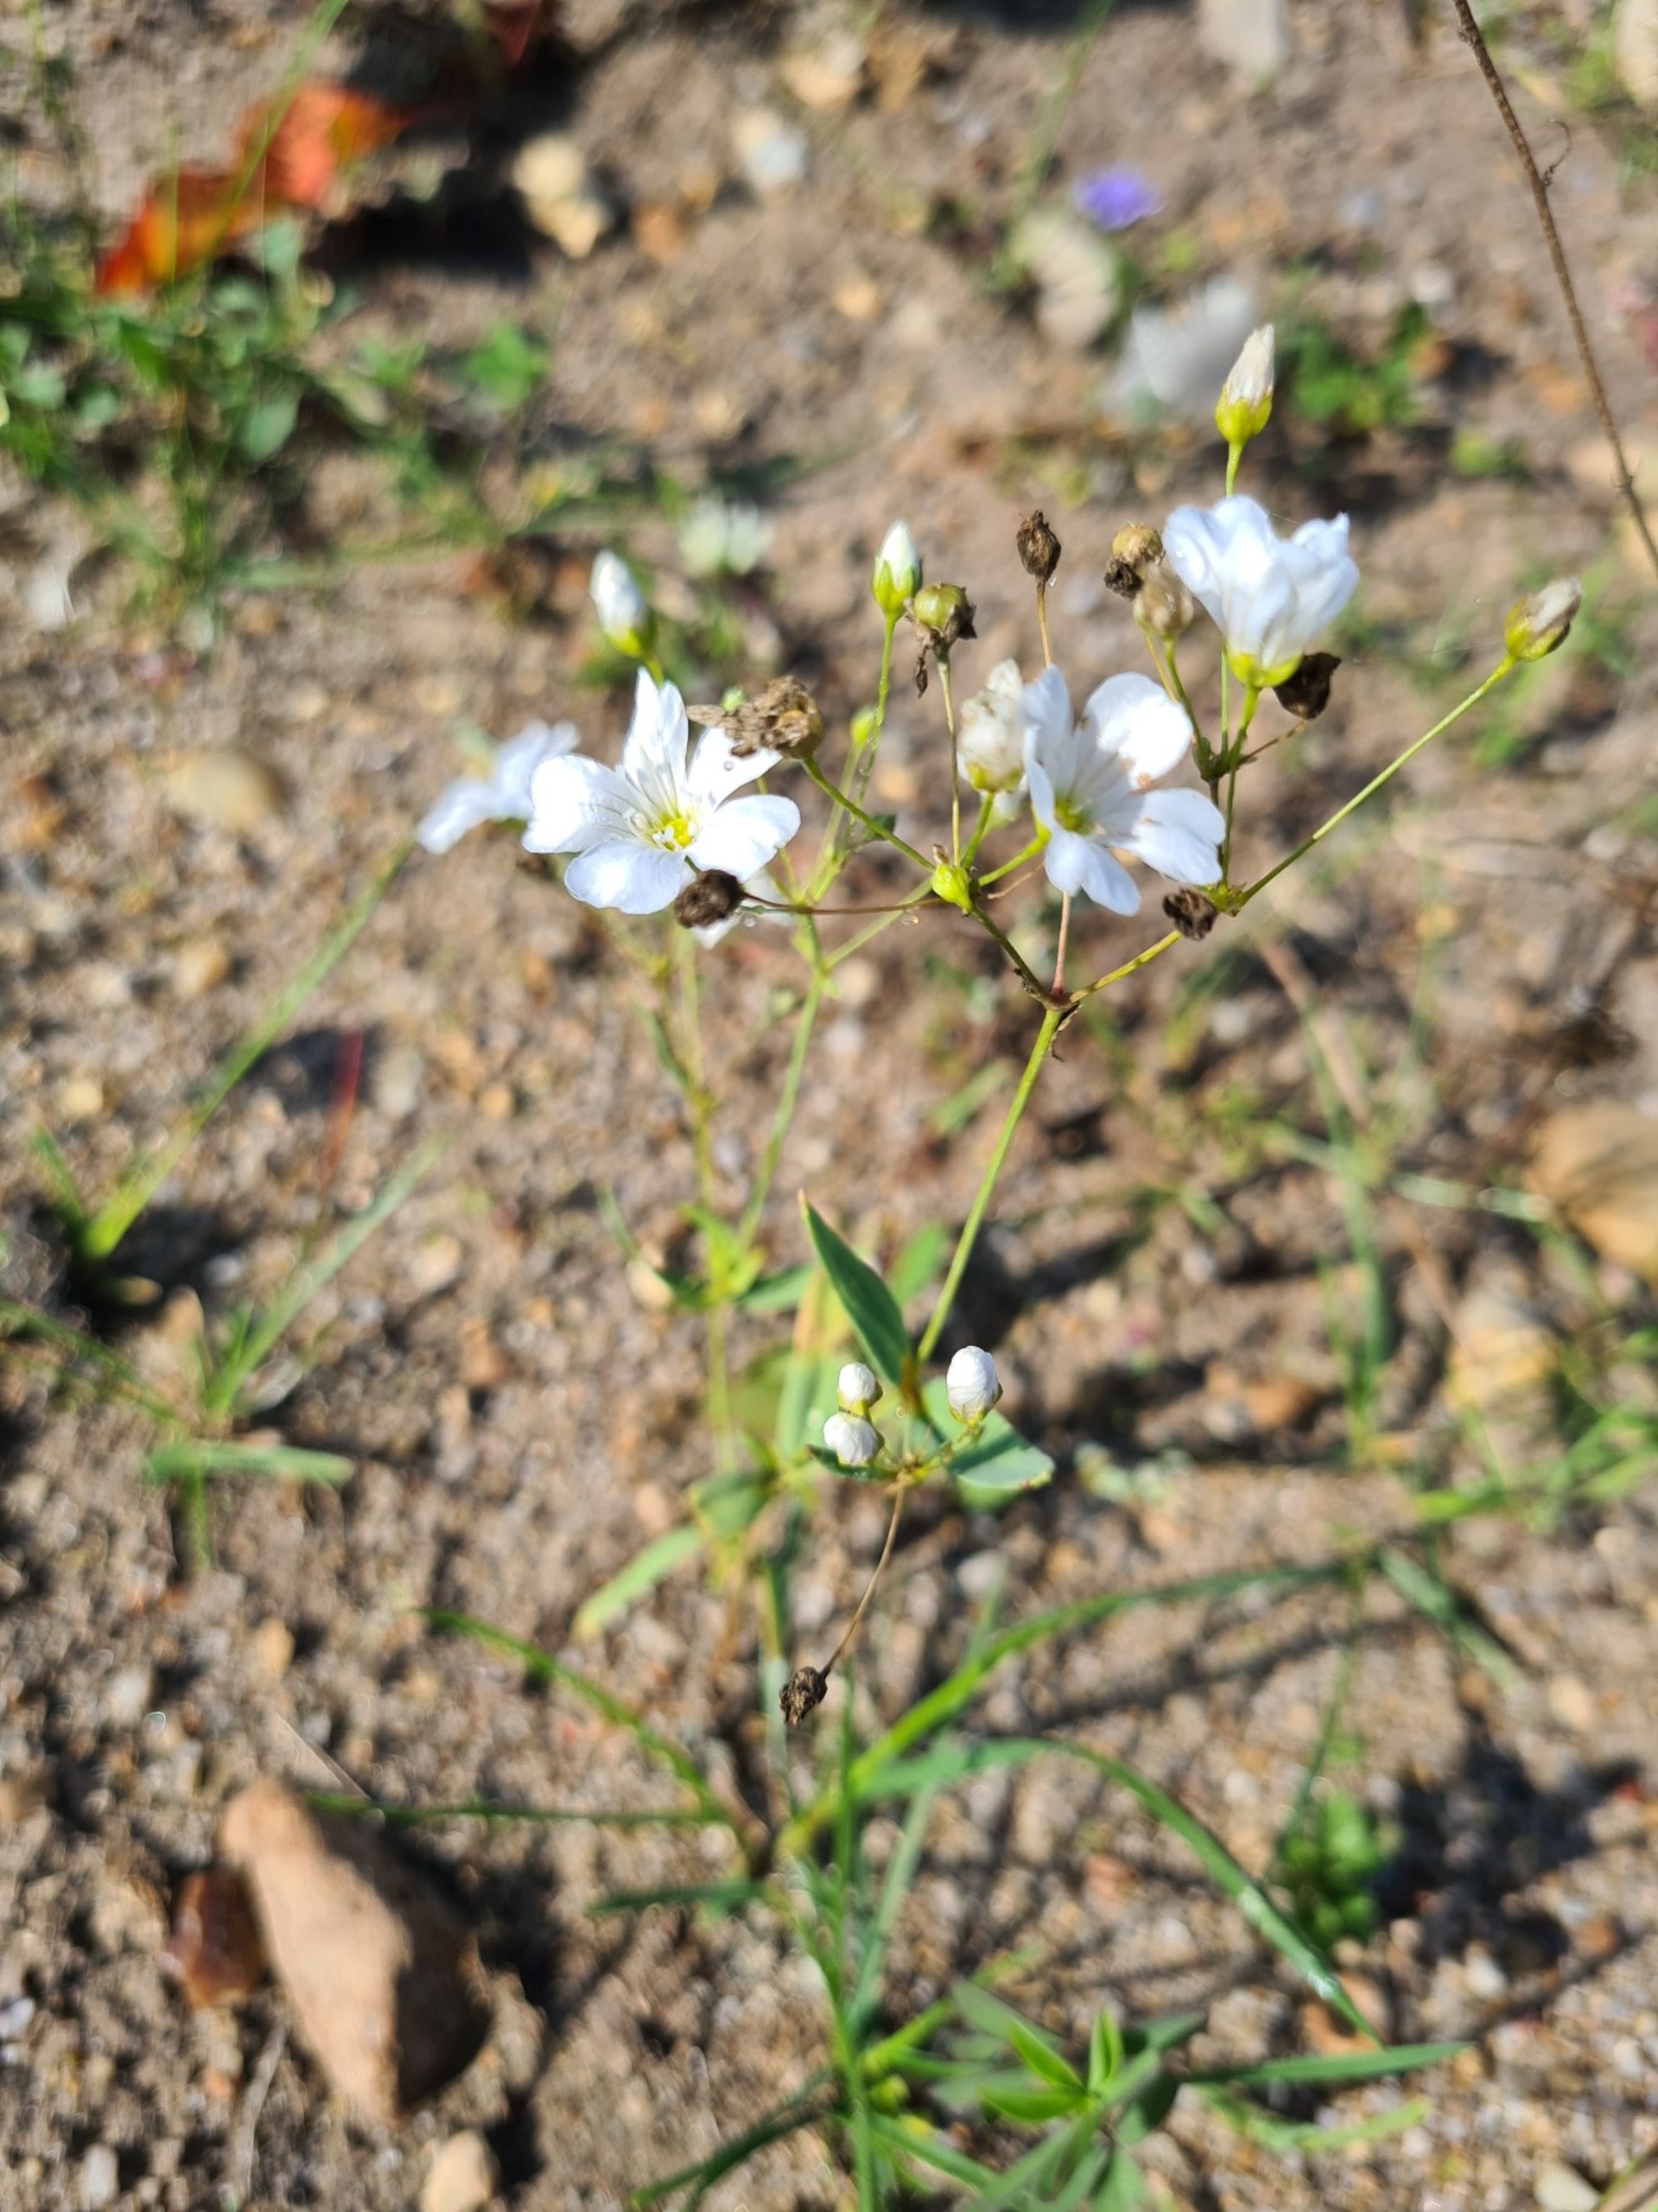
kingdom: Plantae
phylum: Tracheophyta
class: Magnoliopsida
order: Caryophyllales
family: Caryophyllaceae
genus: Gypsophila
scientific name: Gypsophila elegans
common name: Enårig brudeslør
